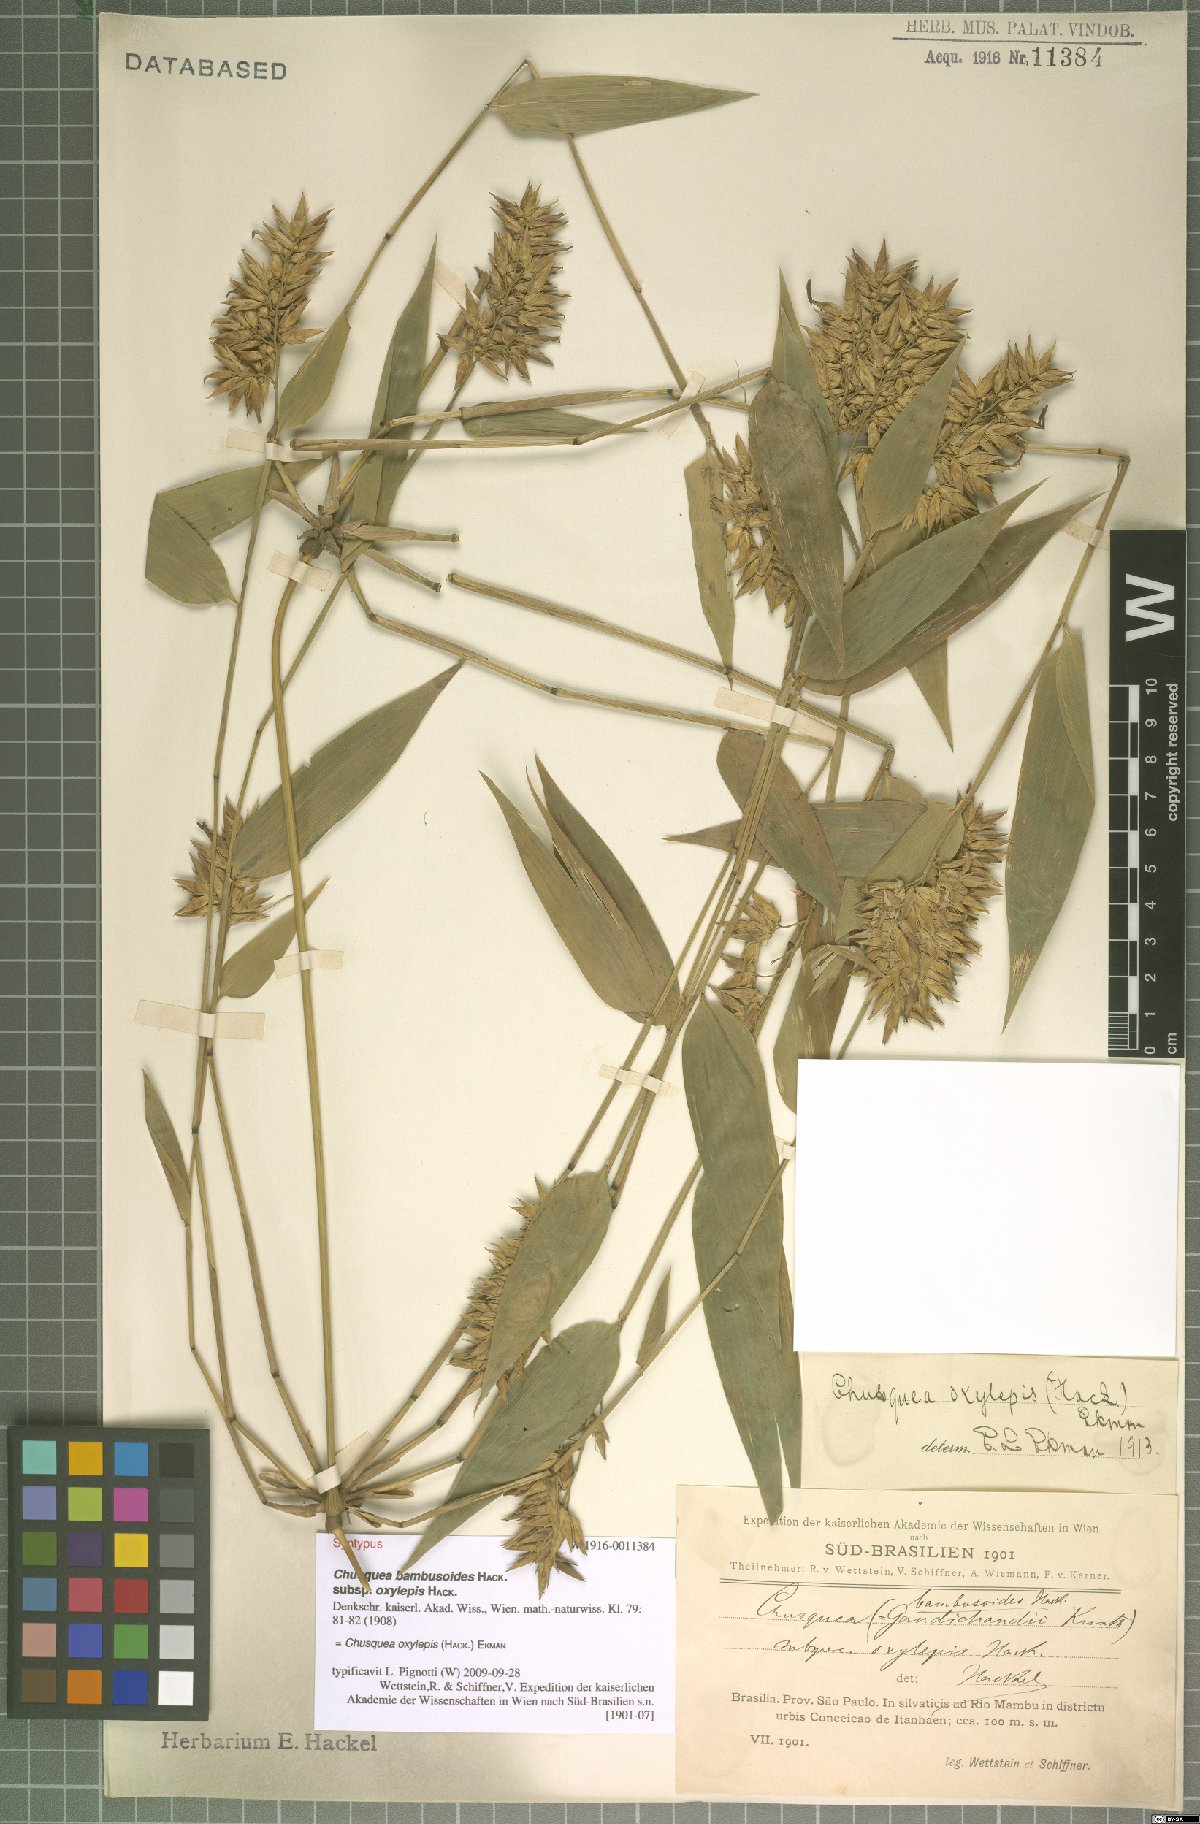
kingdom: Plantae
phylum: Tracheophyta
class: Liliopsida
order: Poales
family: Poaceae
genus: Chusquea
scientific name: Chusquea oxylepis
